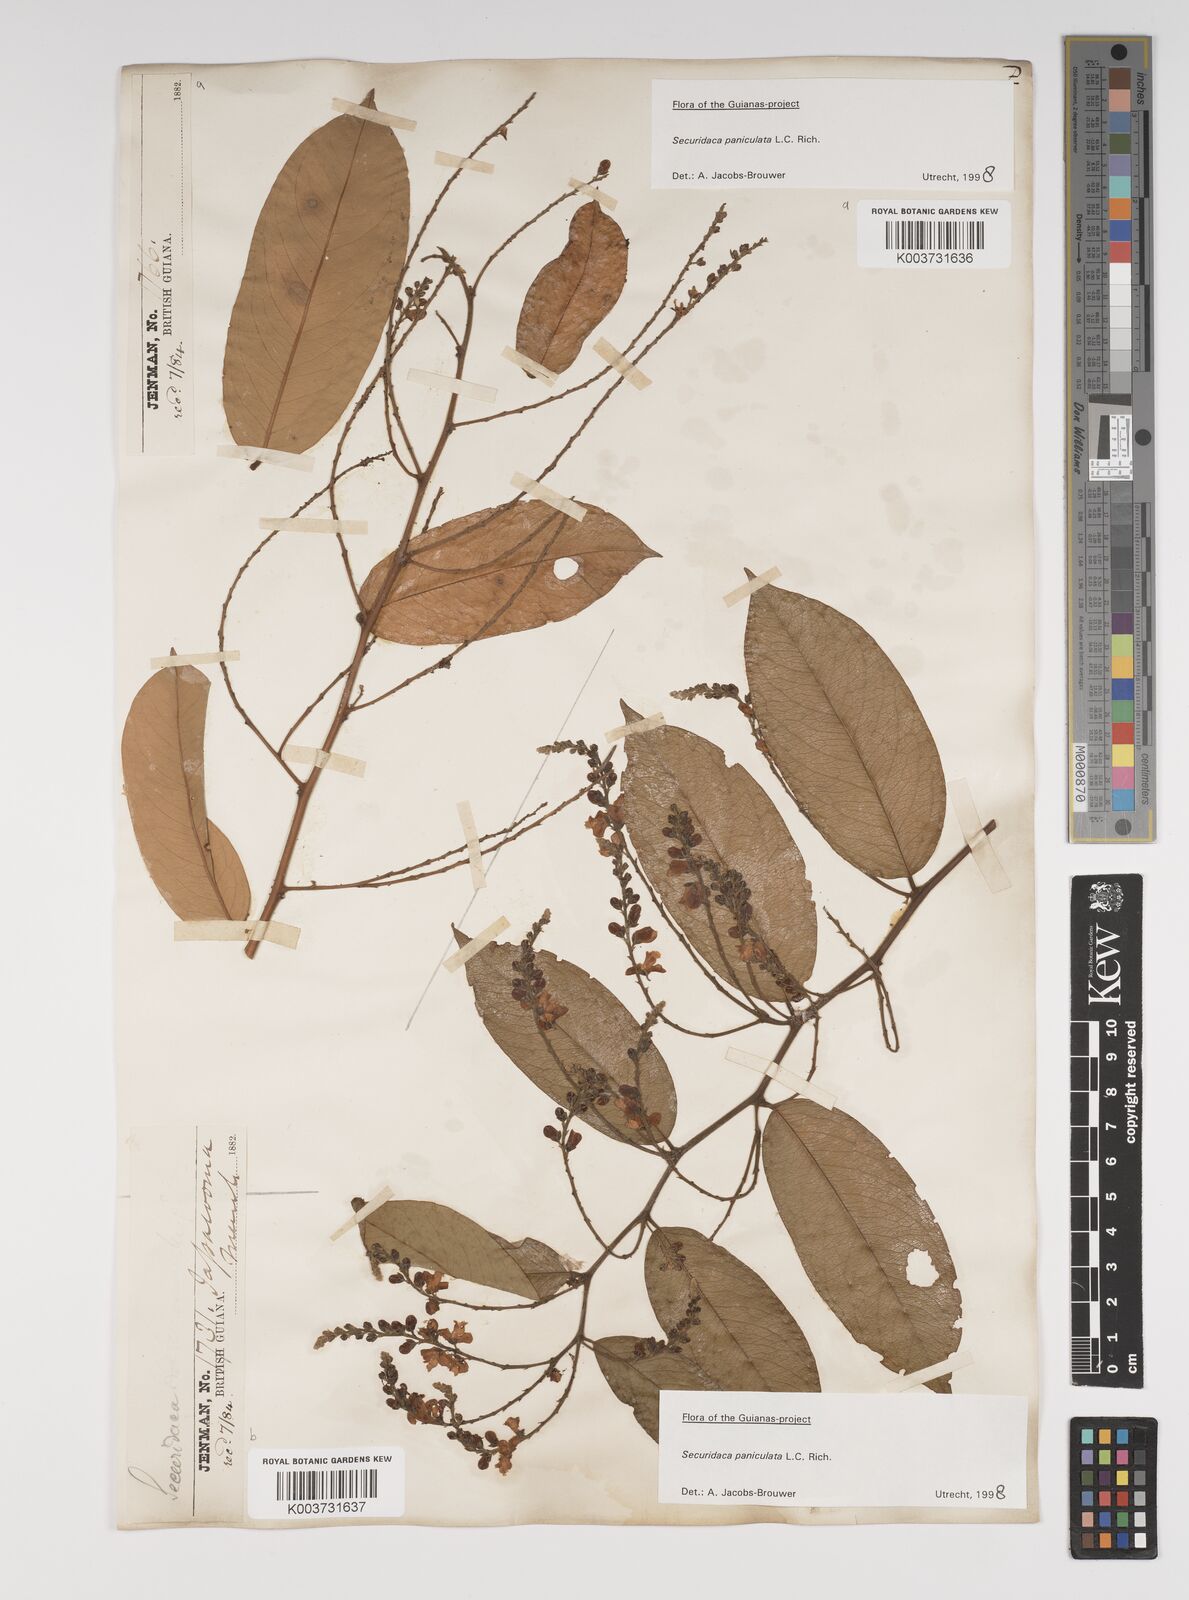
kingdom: Plantae
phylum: Tracheophyta
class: Magnoliopsida
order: Fabales
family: Polygalaceae
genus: Securidaca
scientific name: Securidaca paniculata
